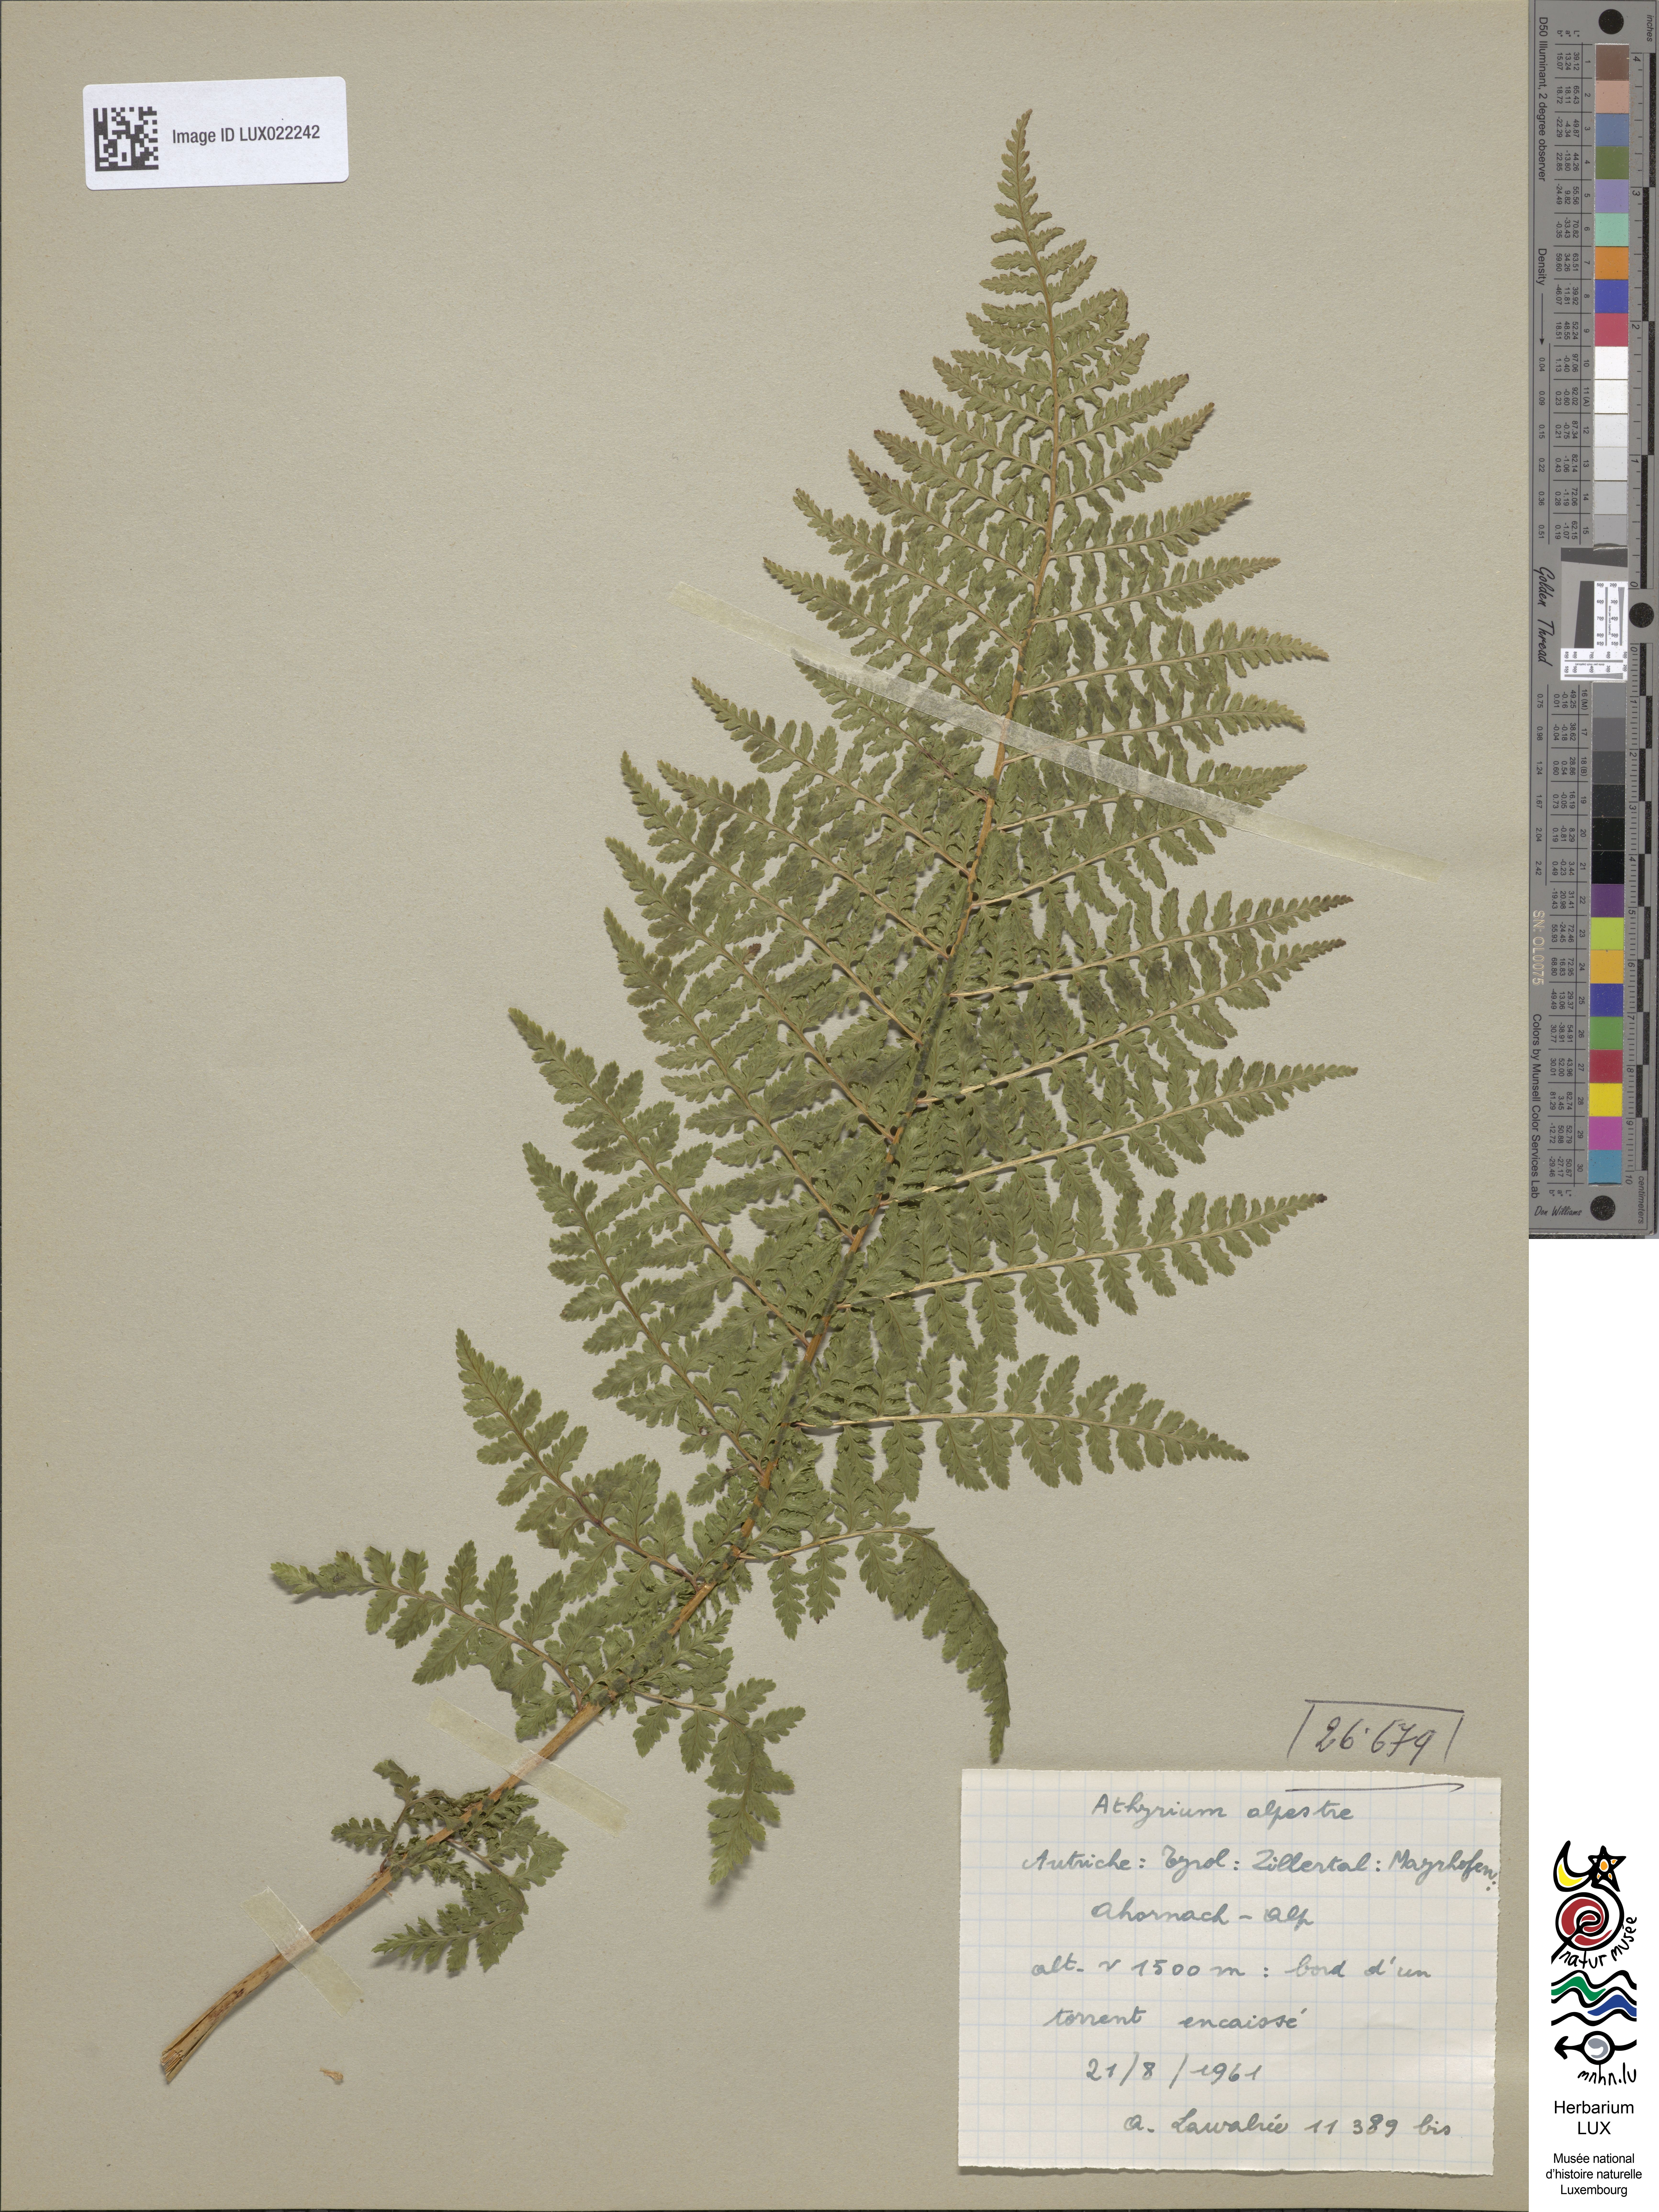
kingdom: Plantae
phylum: Tracheophyta
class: Polypodiopsida
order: Polypodiales
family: Athyriaceae
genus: Pseudathyrium
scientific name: Pseudathyrium alpestre
